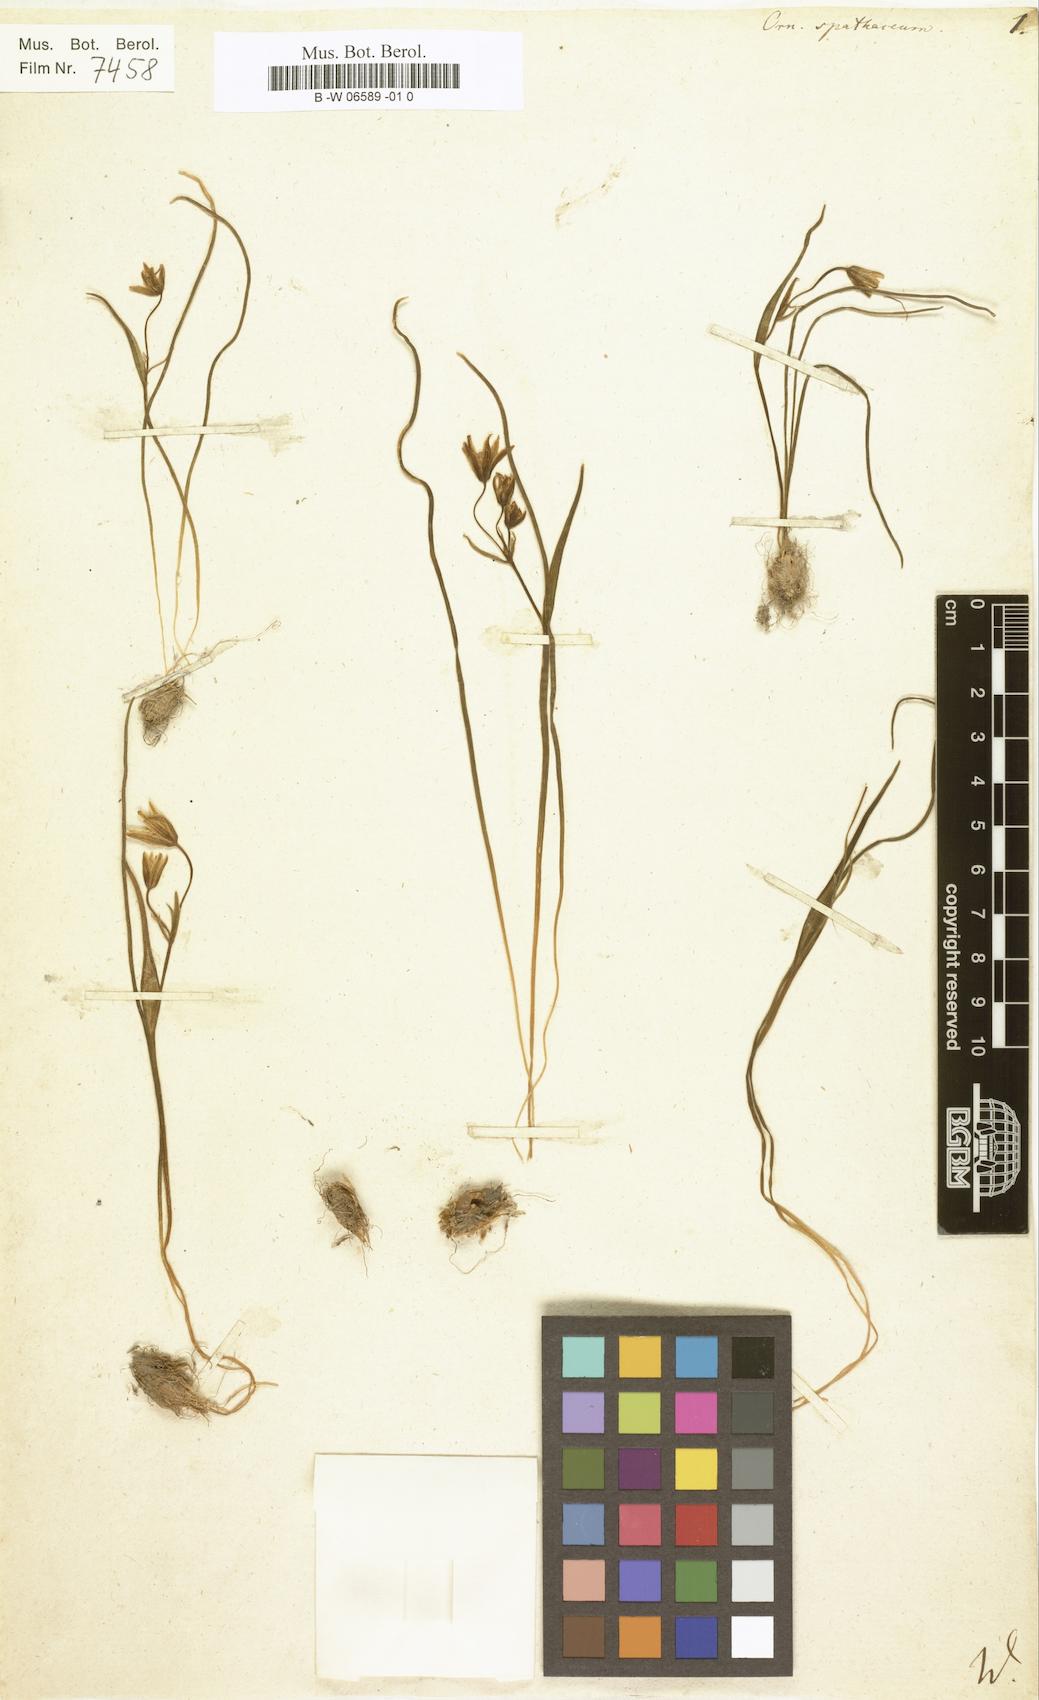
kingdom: Plantae
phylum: Tracheophyta
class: Liliopsida
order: Liliales
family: Liliaceae
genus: Gagea
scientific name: Gagea spathacea
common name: Belgian gagea
